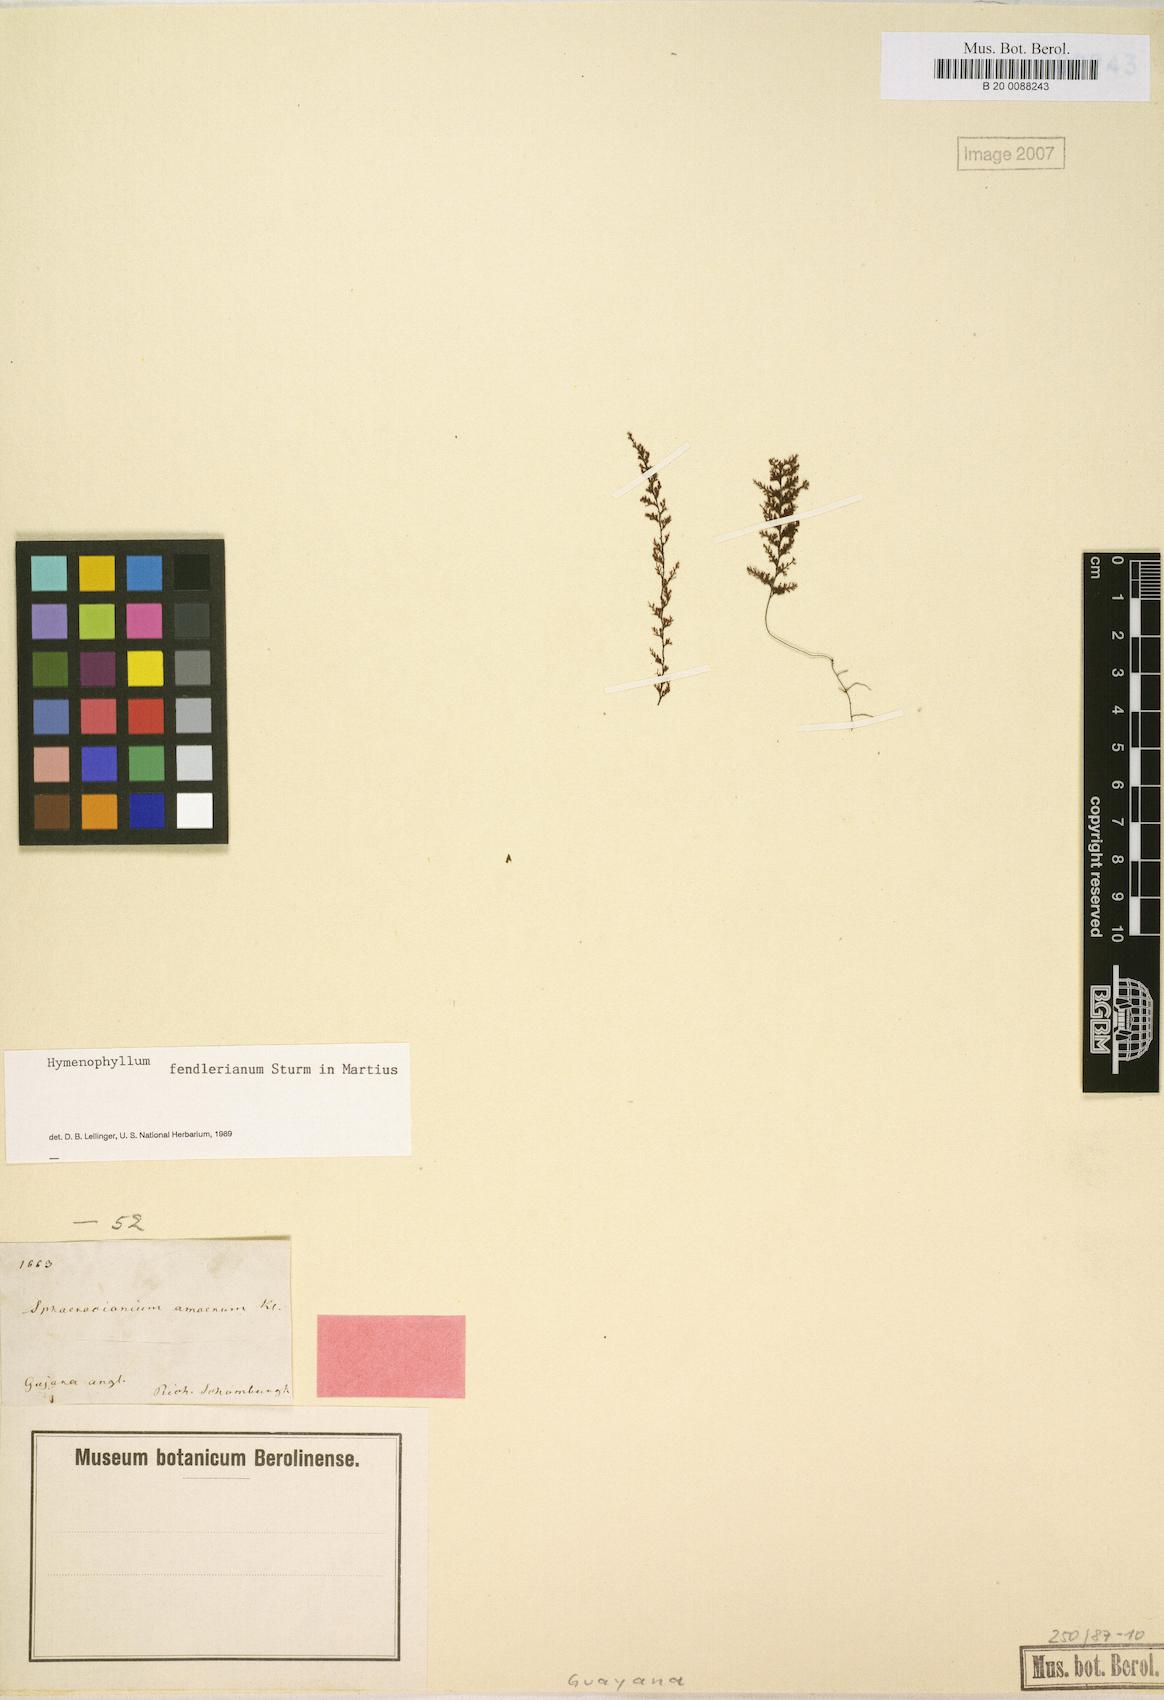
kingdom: Plantae
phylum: Tracheophyta
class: Polypodiopsida
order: Hymenophyllales
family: Hymenophyllaceae
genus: Hymenophyllum
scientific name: Hymenophyllum fendlerianum
